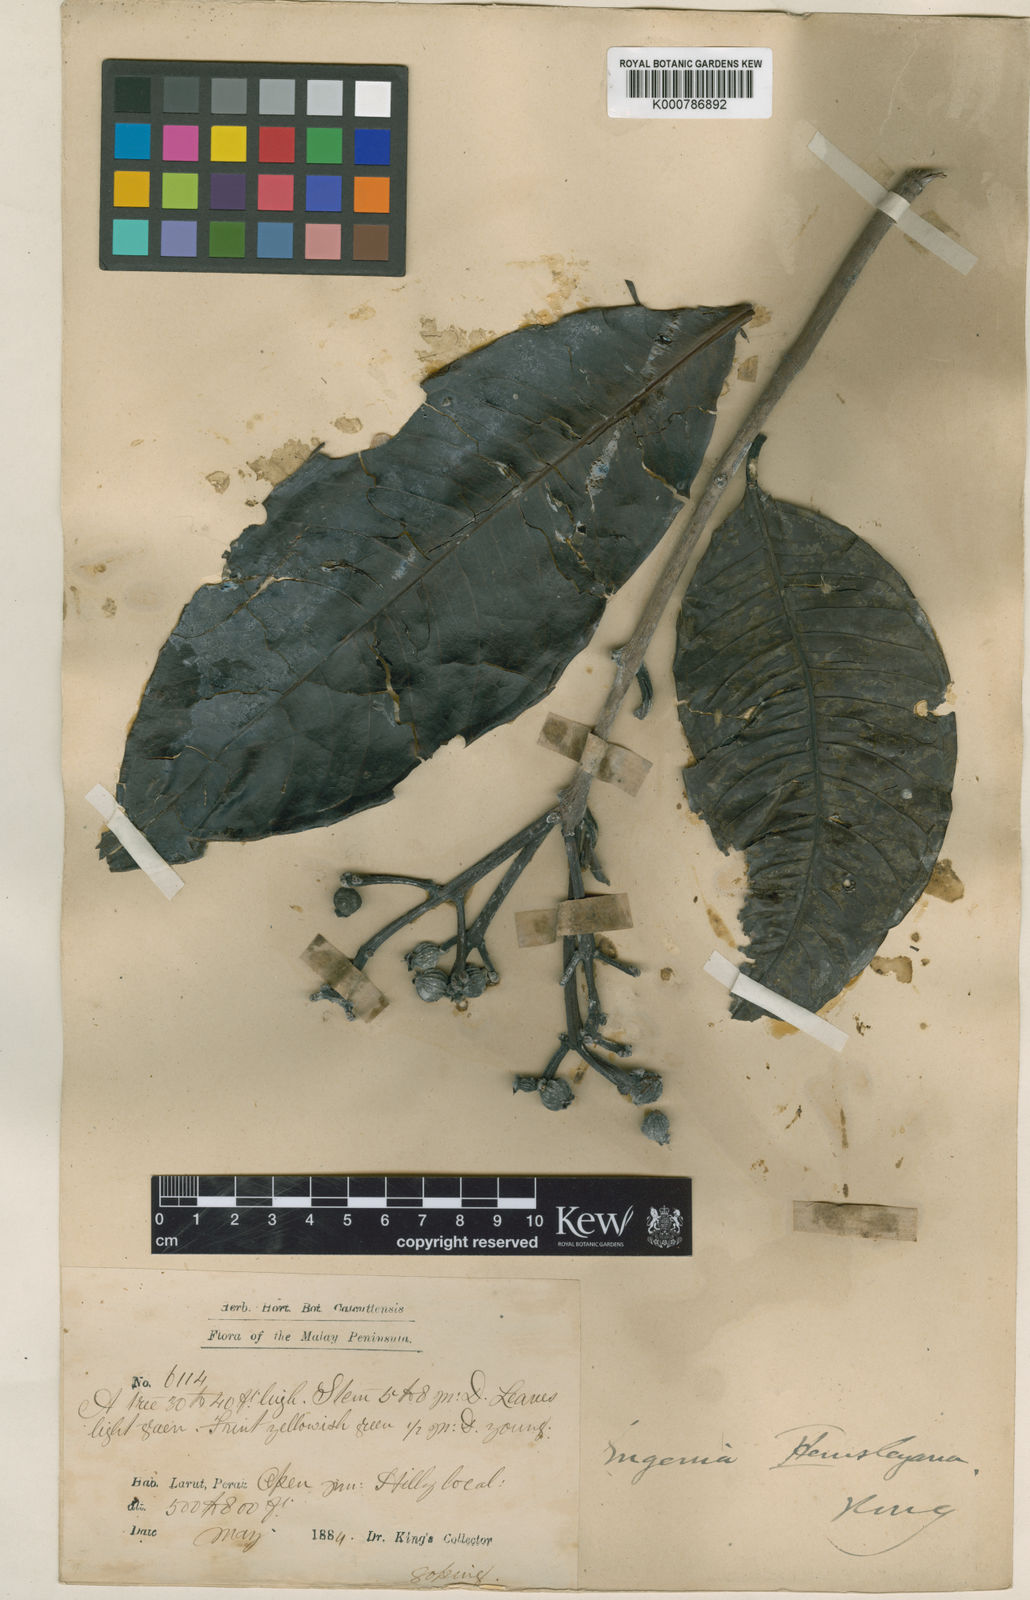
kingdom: Plantae
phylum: Tracheophyta
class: Magnoliopsida
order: Myrtales
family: Myrtaceae
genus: Syzygium
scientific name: Syzygium hemsleyanum
